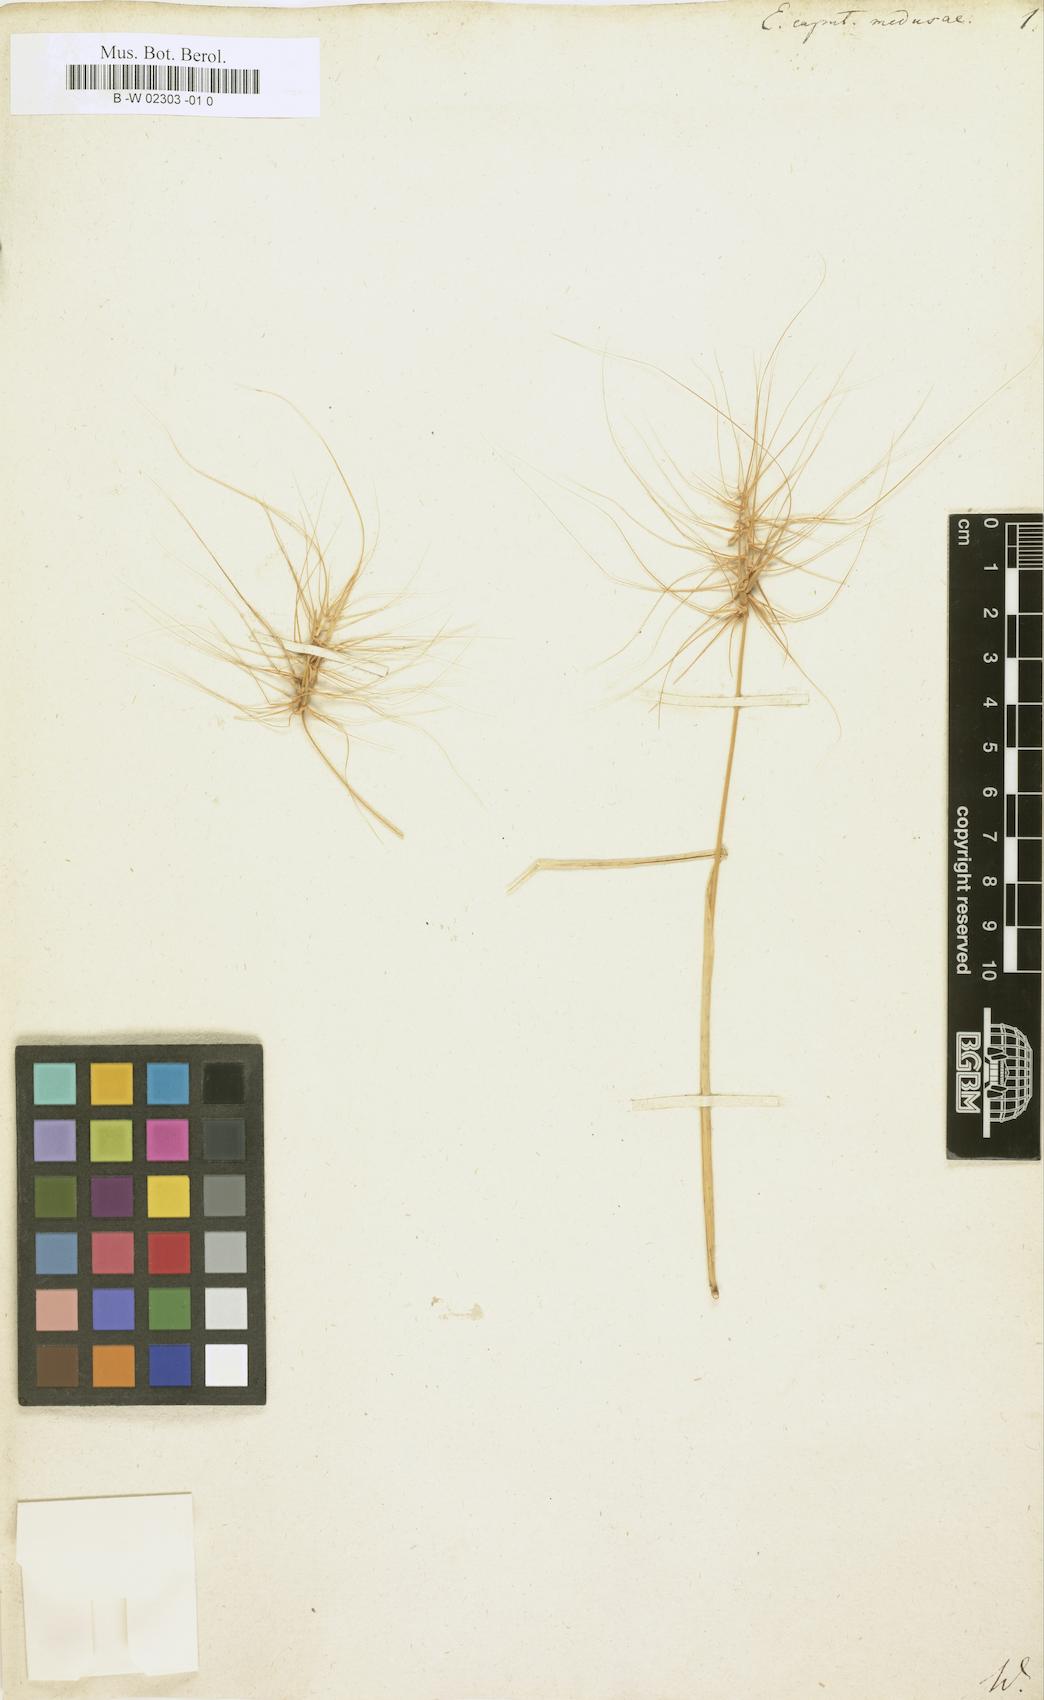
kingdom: Plantae
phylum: Tracheophyta
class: Liliopsida
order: Poales
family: Poaceae
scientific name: Poaceae
